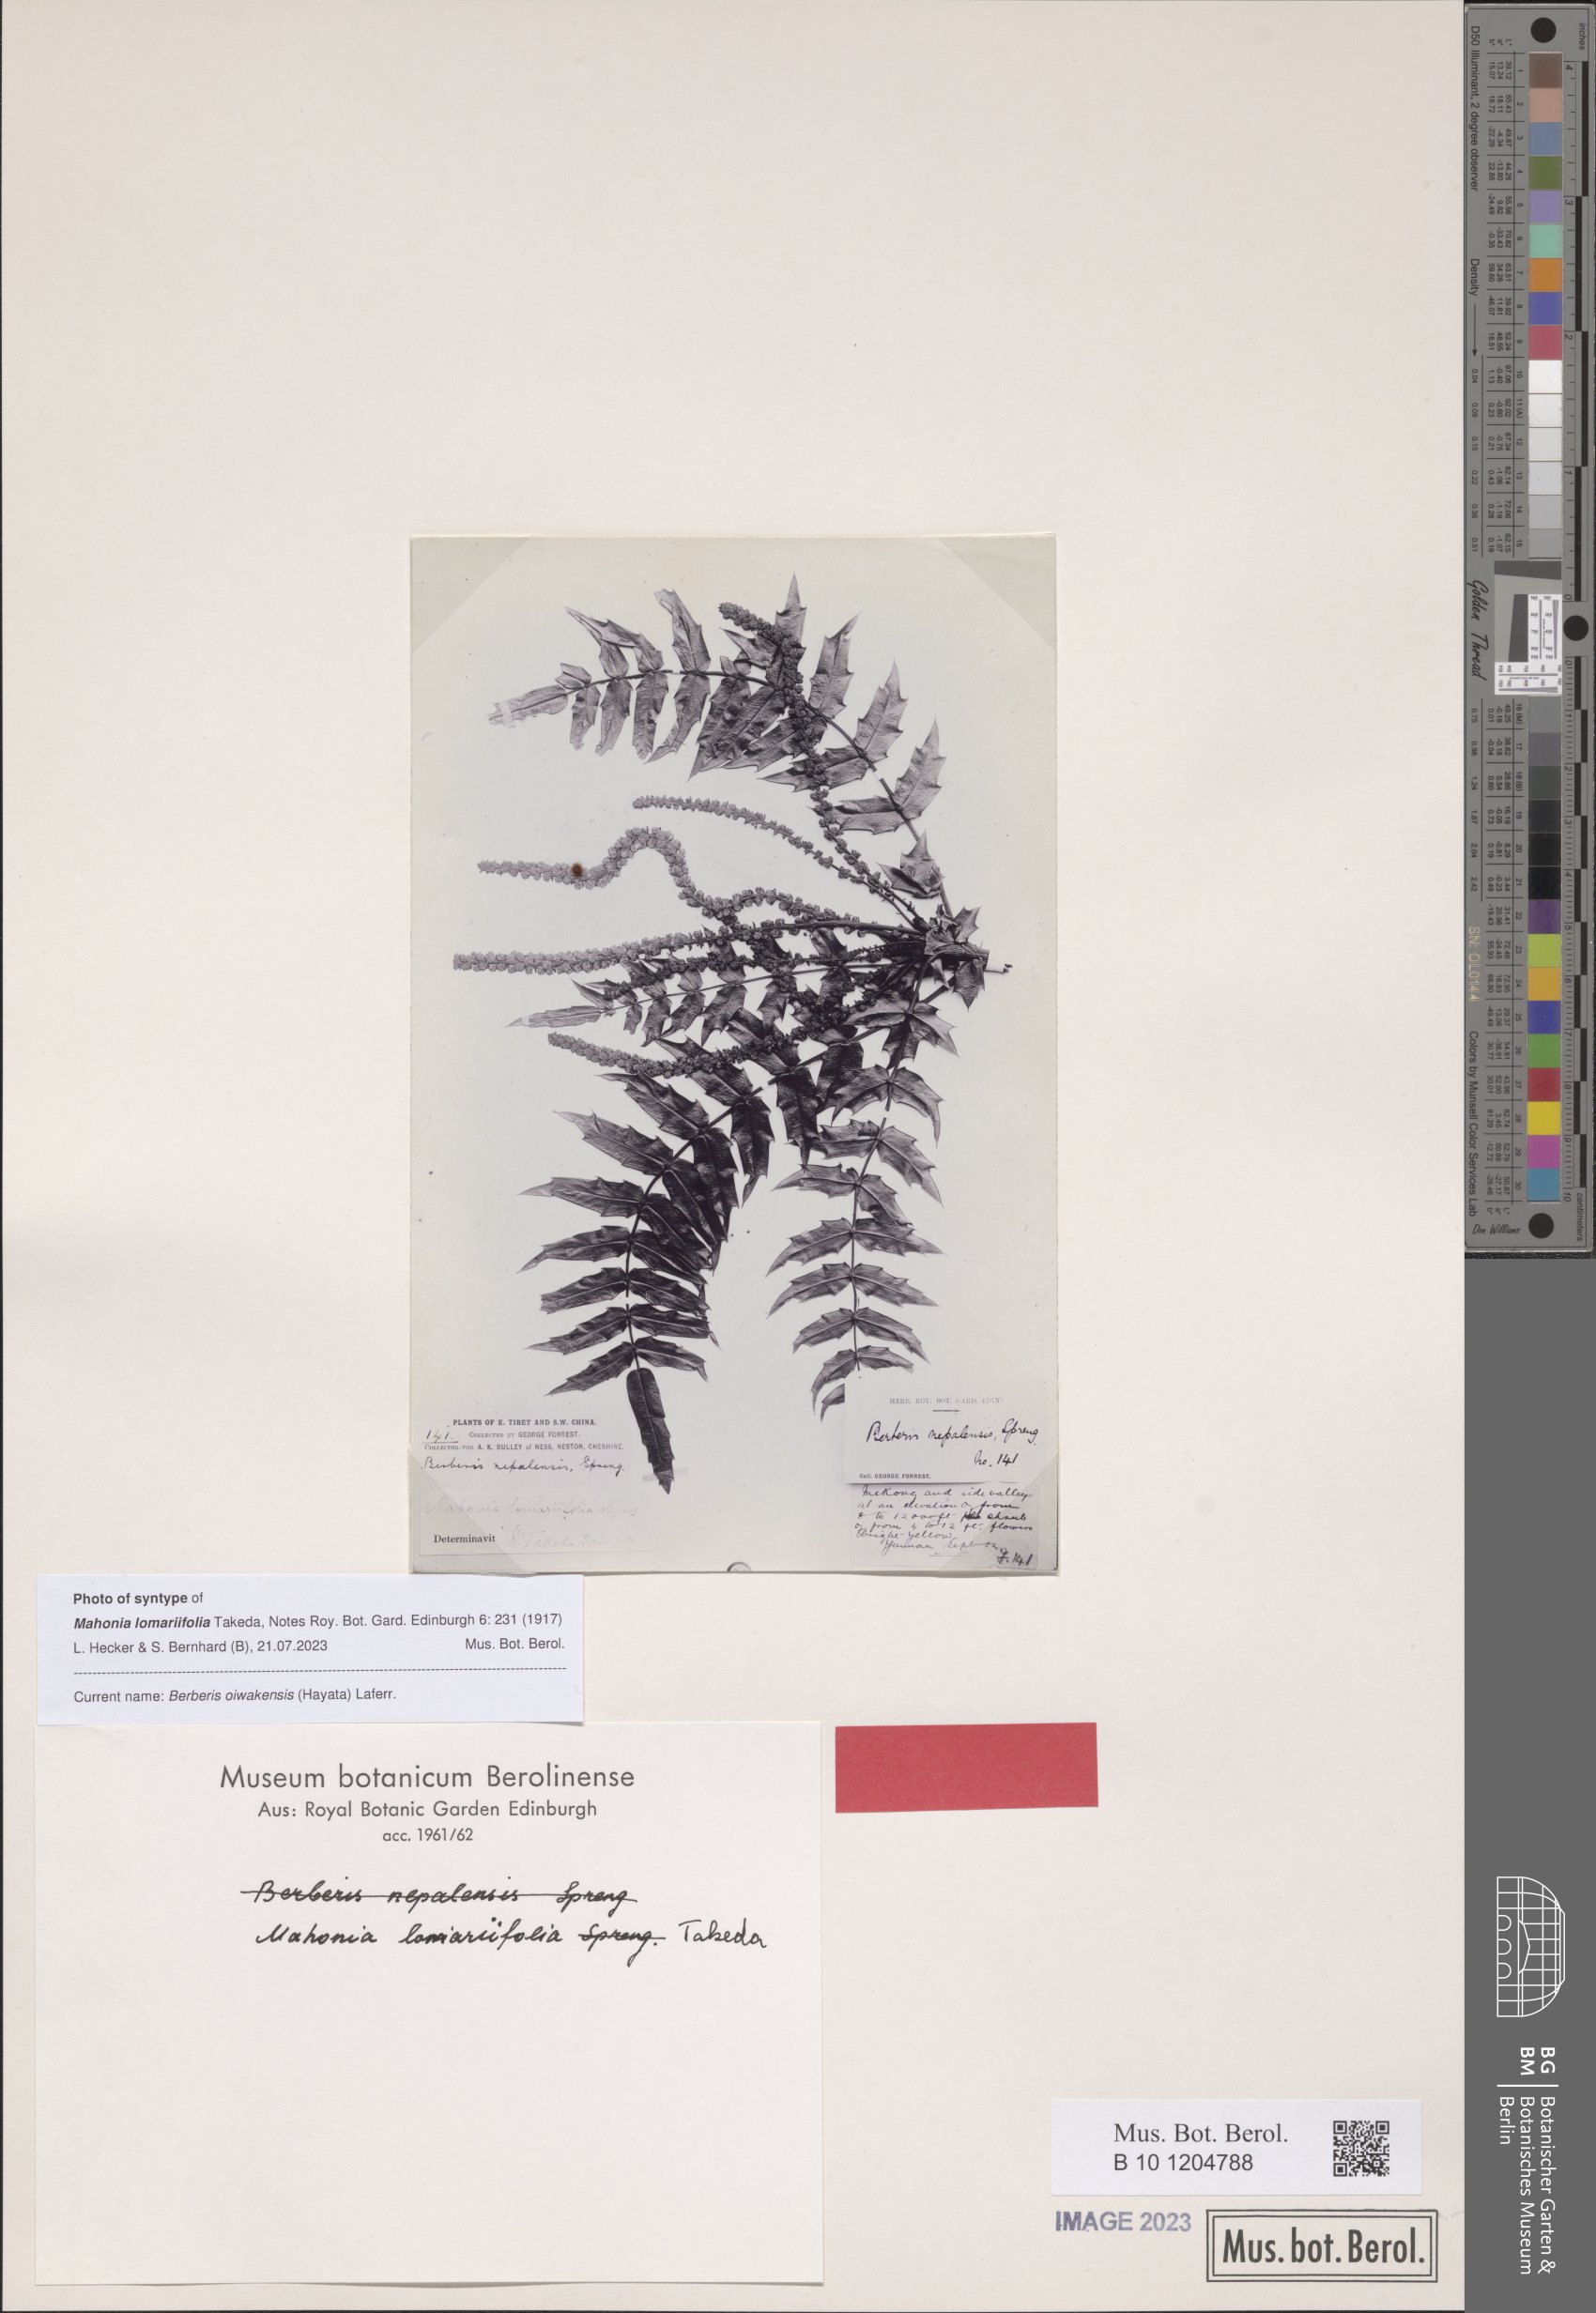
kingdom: Plantae
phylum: Tracheophyta
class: Magnoliopsida
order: Ranunculales
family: Berberidaceae
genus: Mahonia
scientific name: Mahonia oiwakensis
